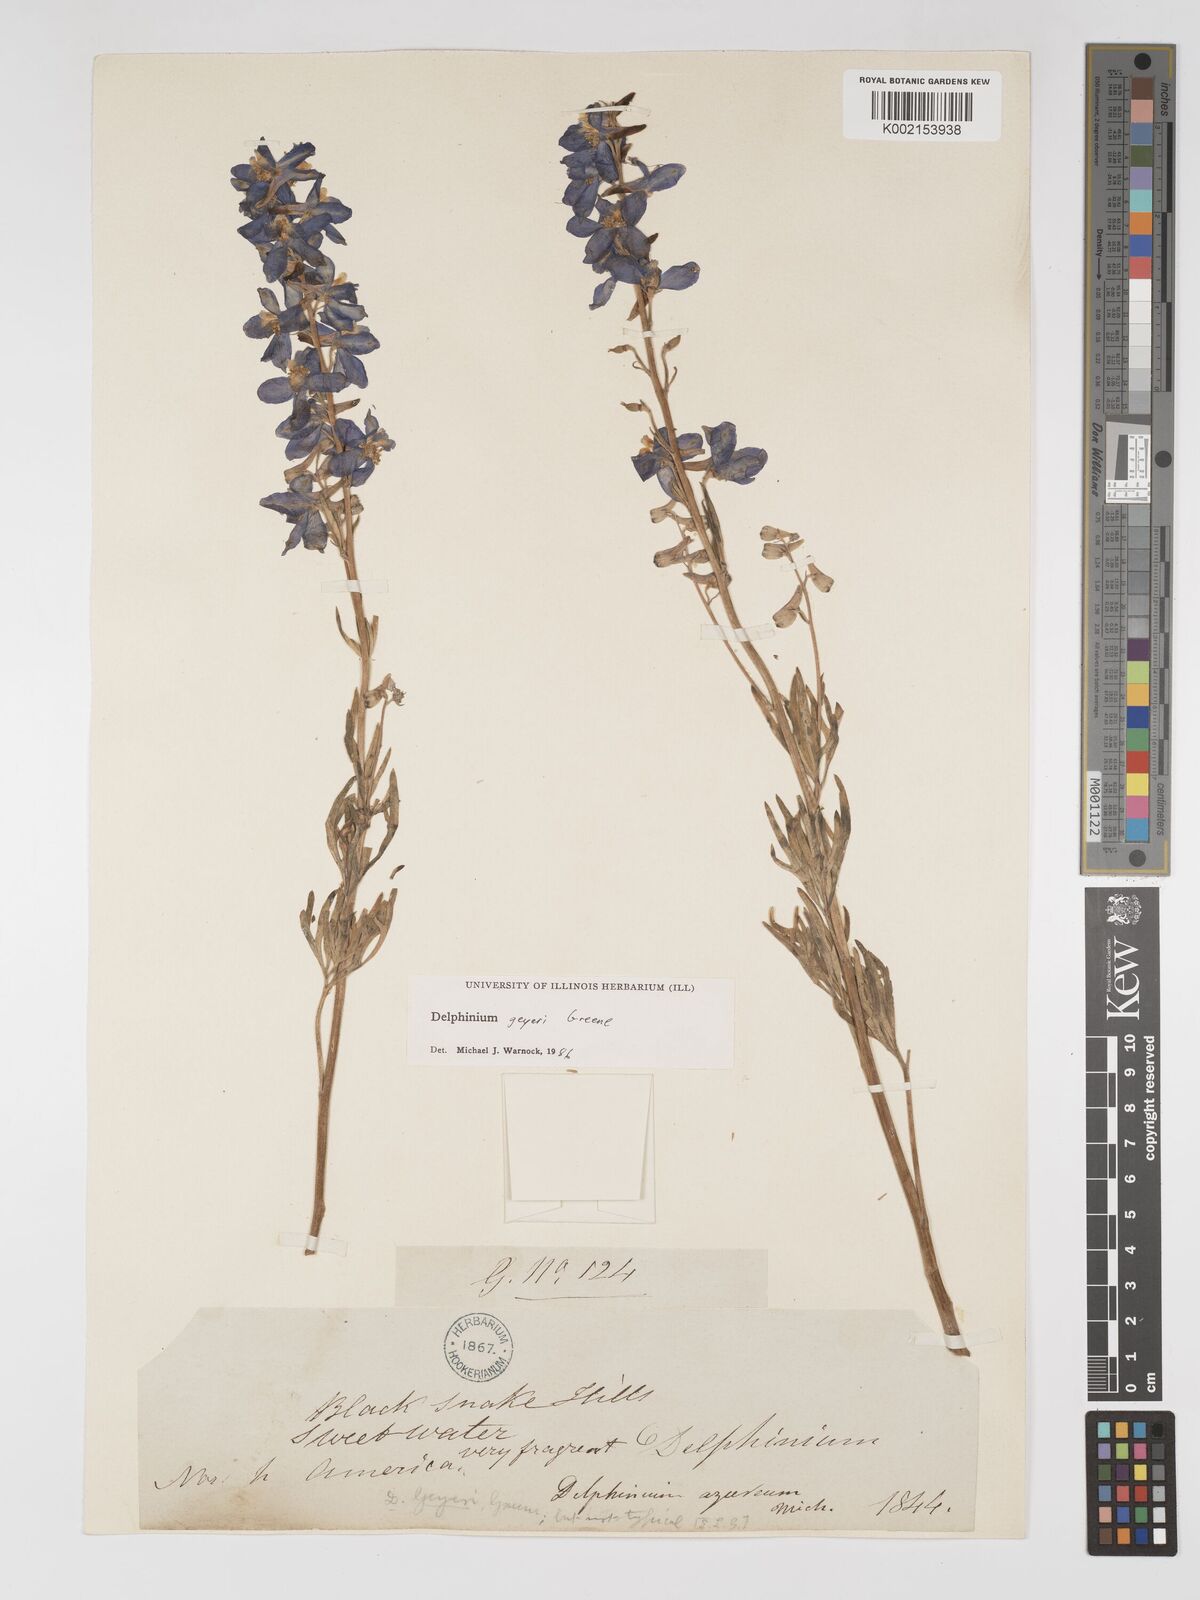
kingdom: Plantae
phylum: Tracheophyta
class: Magnoliopsida
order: Ranunculales
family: Ranunculaceae
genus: Delphinium
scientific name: Delphinium geyeri
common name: Geyer's larkspur
